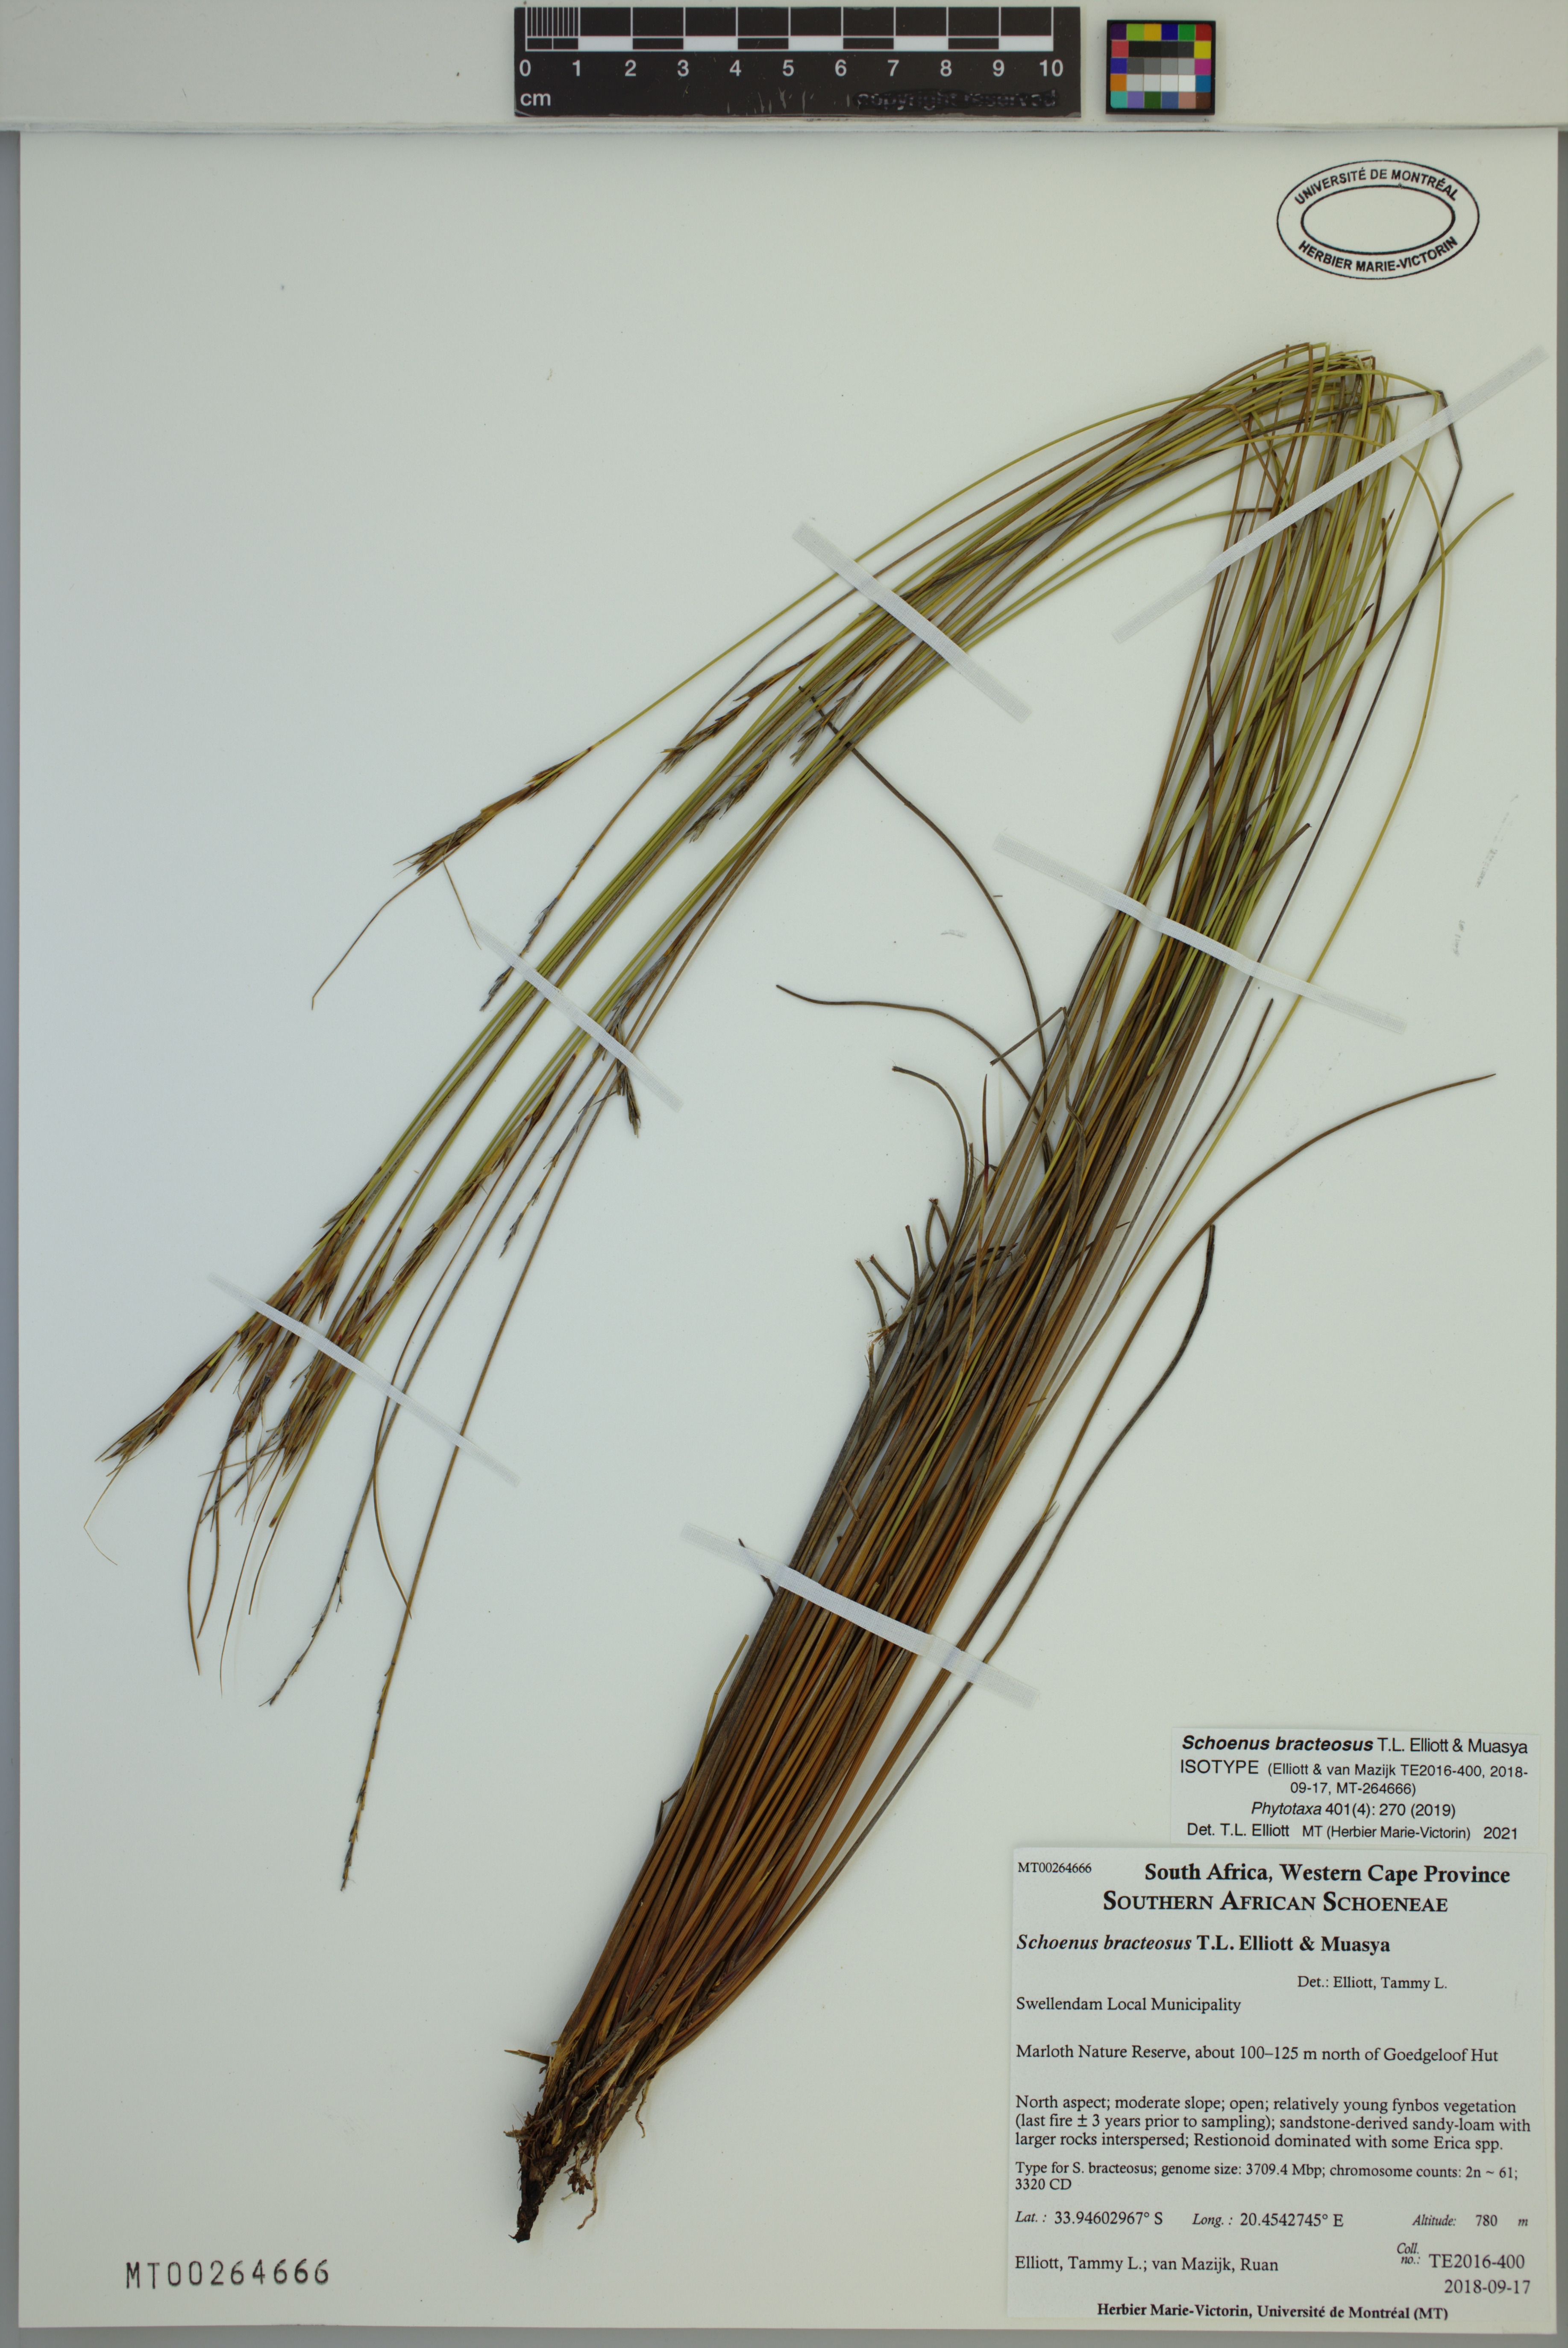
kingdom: Plantae
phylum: Tracheophyta
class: Liliopsida
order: Poales
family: Cyperaceae
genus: Schoenus
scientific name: Schoenus bracteosus
